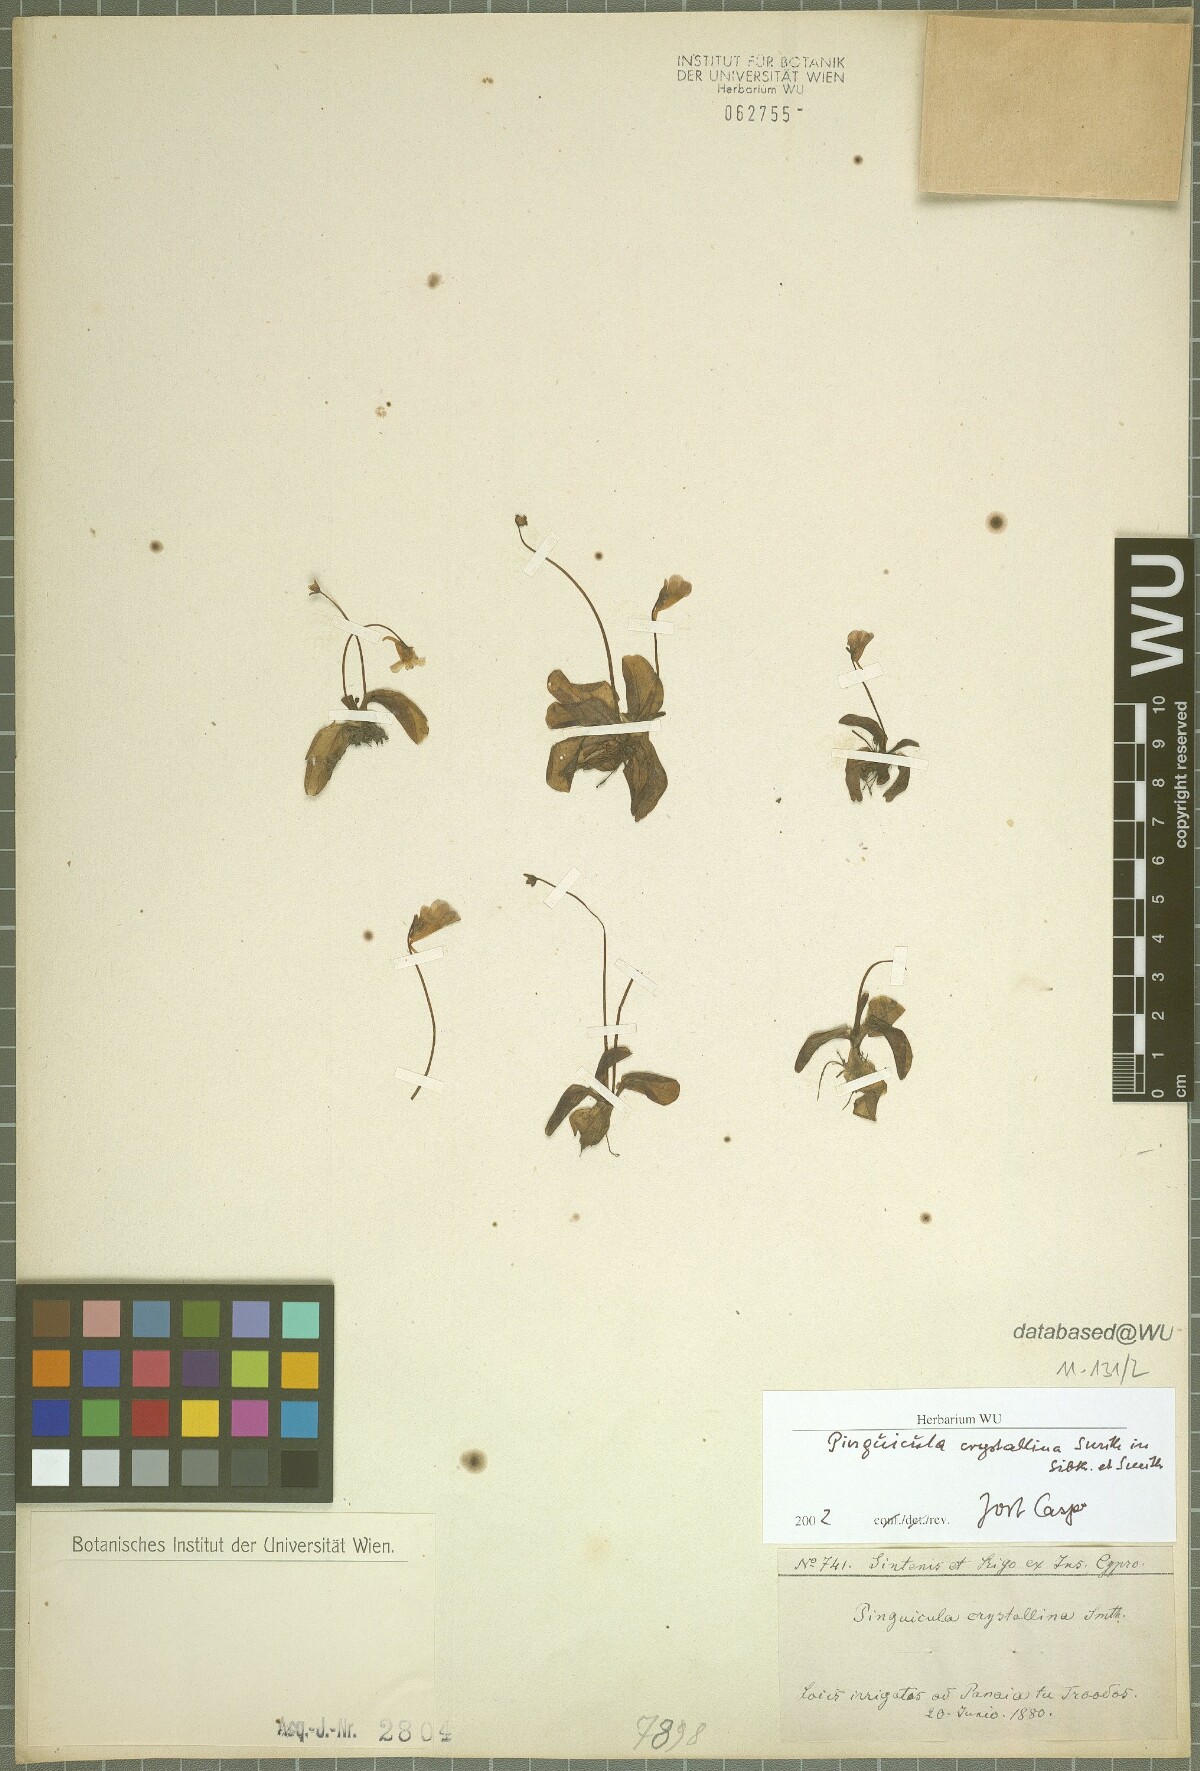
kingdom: Plantae
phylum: Tracheophyta
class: Magnoliopsida
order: Lamiales
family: Lentibulariaceae
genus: Pinguicula
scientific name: Pinguicula crystallina
